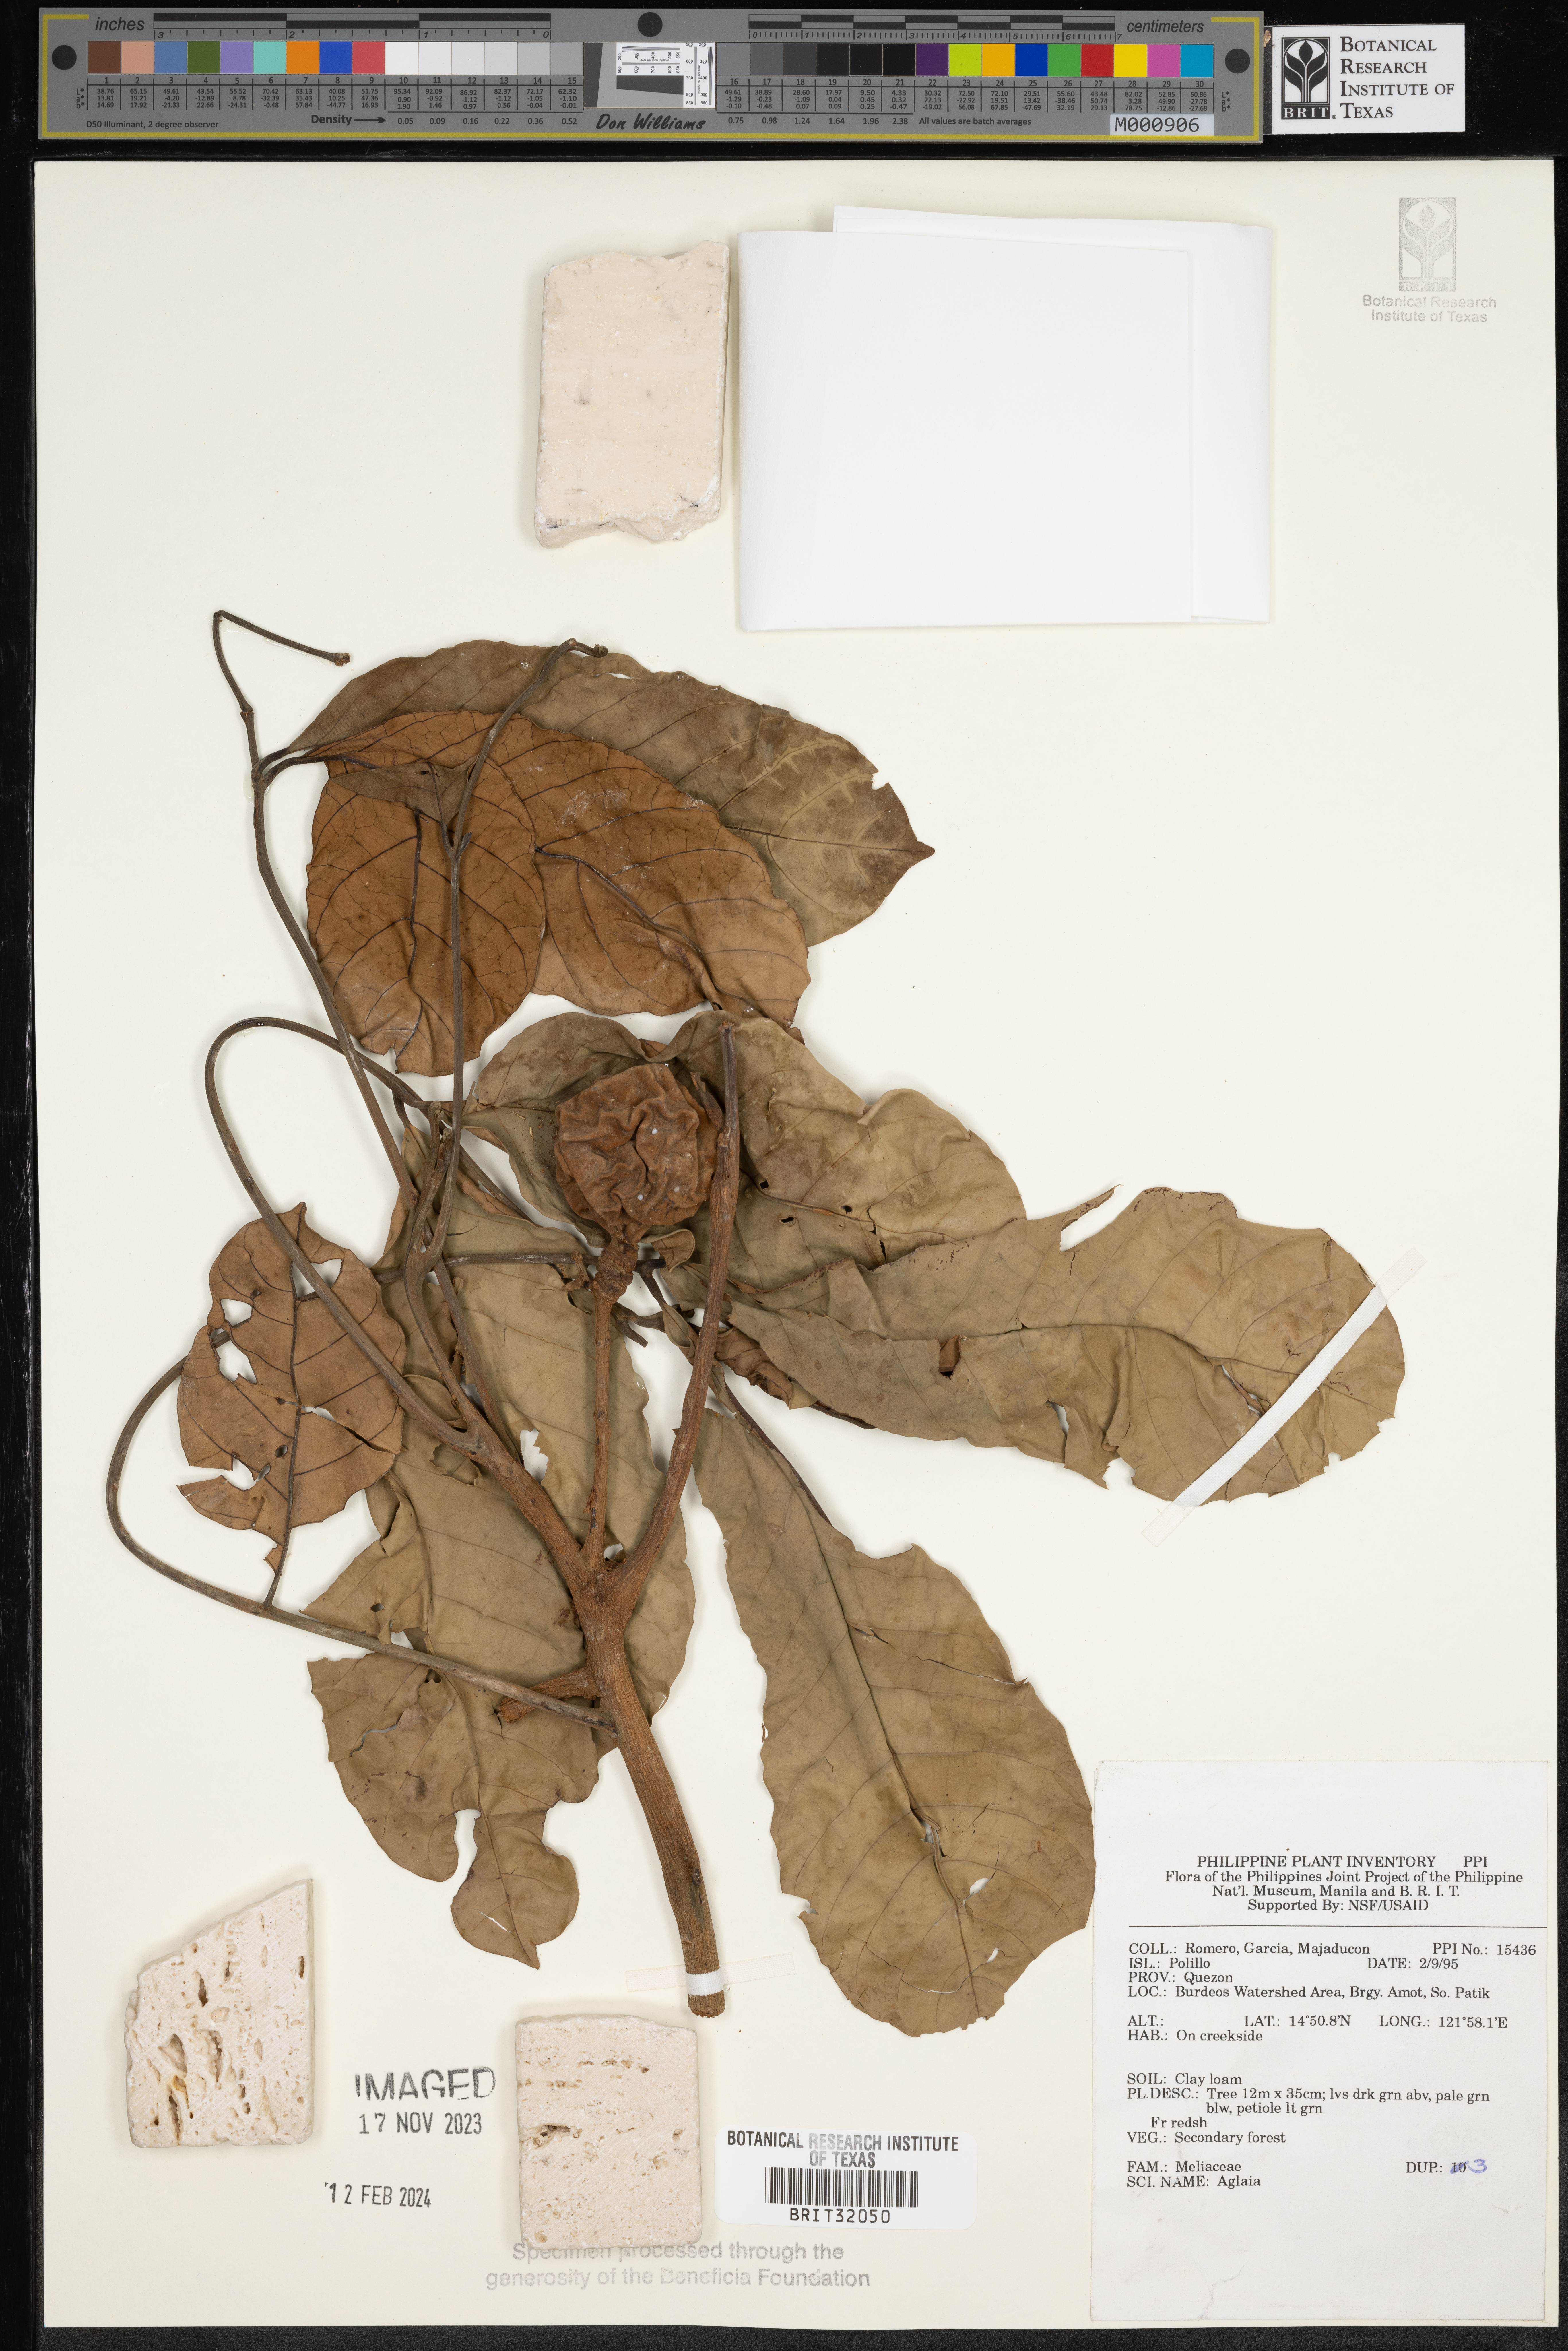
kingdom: Plantae
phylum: Tracheophyta
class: Magnoliopsida
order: Sapindales
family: Meliaceae
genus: Aglaia
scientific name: Aglaia
